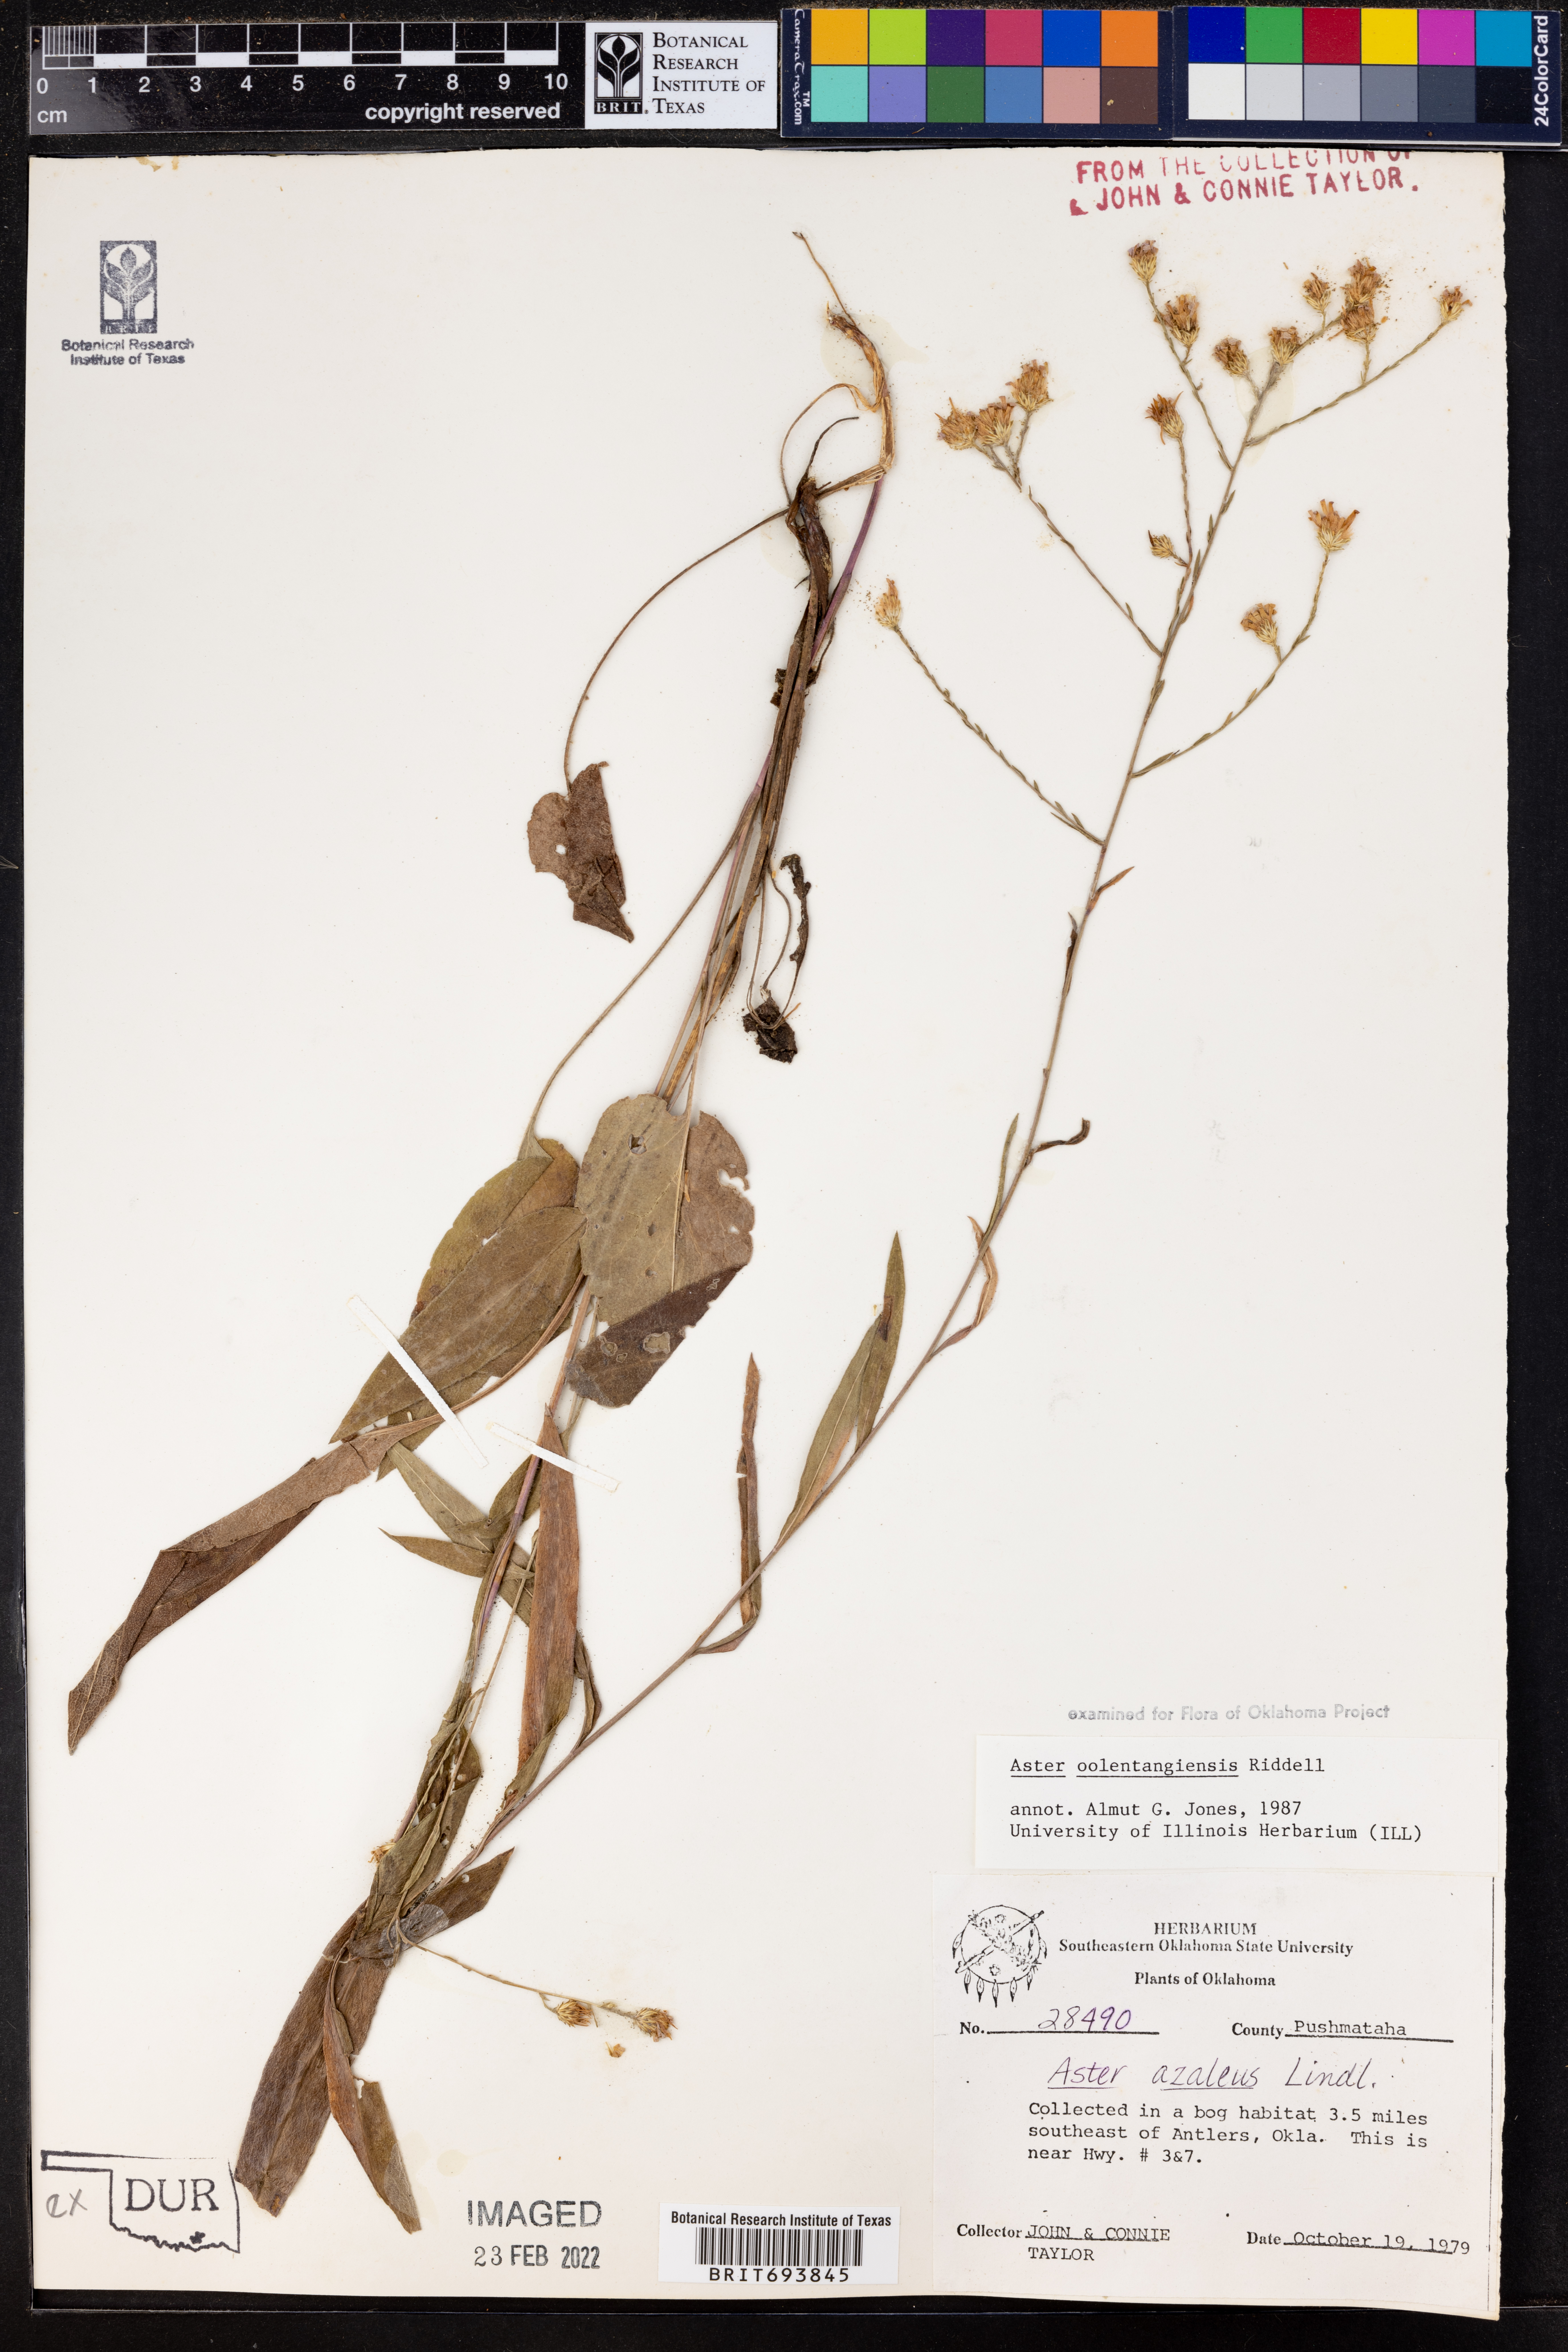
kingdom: Plantae
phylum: Tracheophyta
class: Magnoliopsida
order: Asterales
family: Asteraceae
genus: Symphyotrichum
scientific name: Symphyotrichum oolentangiense
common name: Azure aster
